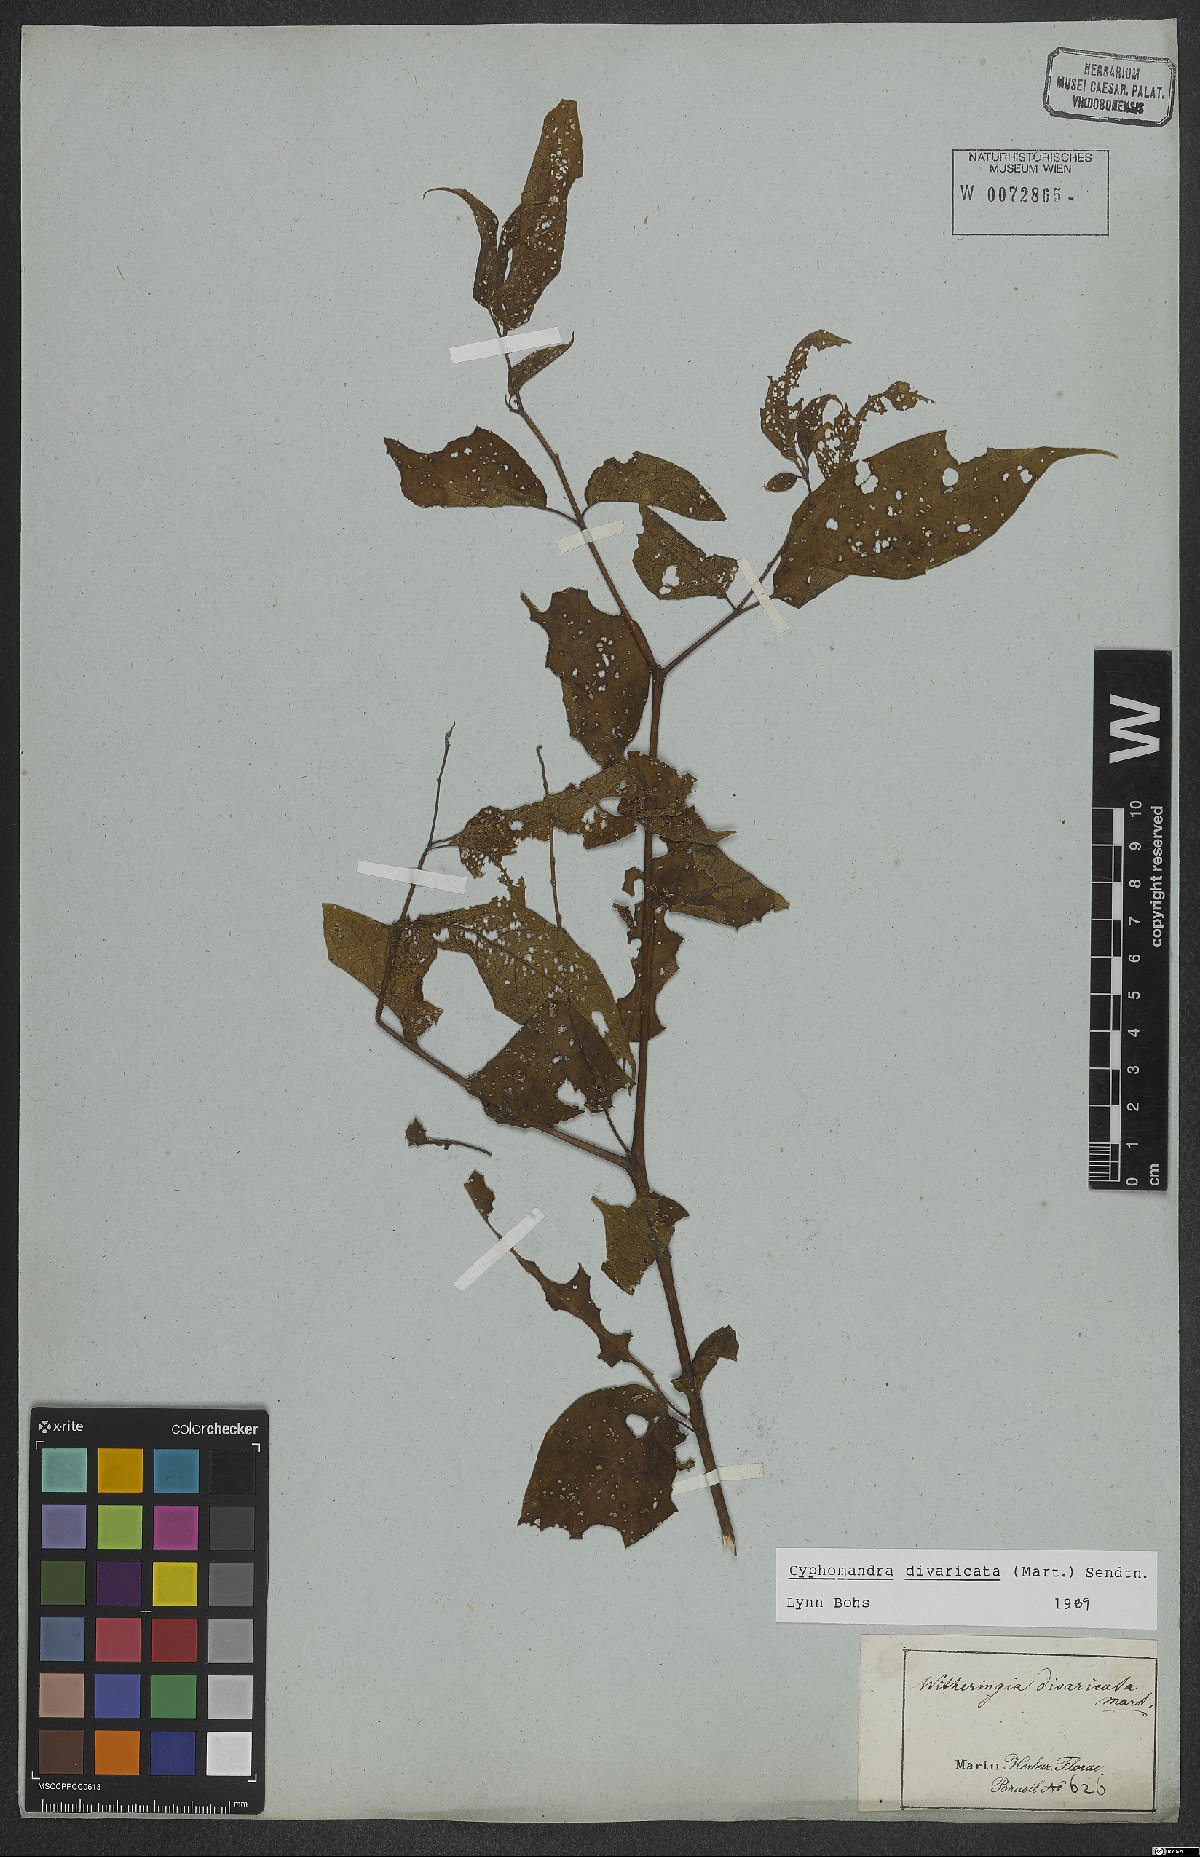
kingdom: Plantae
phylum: Tracheophyta
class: Magnoliopsida
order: Solanales
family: Solanaceae
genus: Solanum
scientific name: Solanum melissarum
